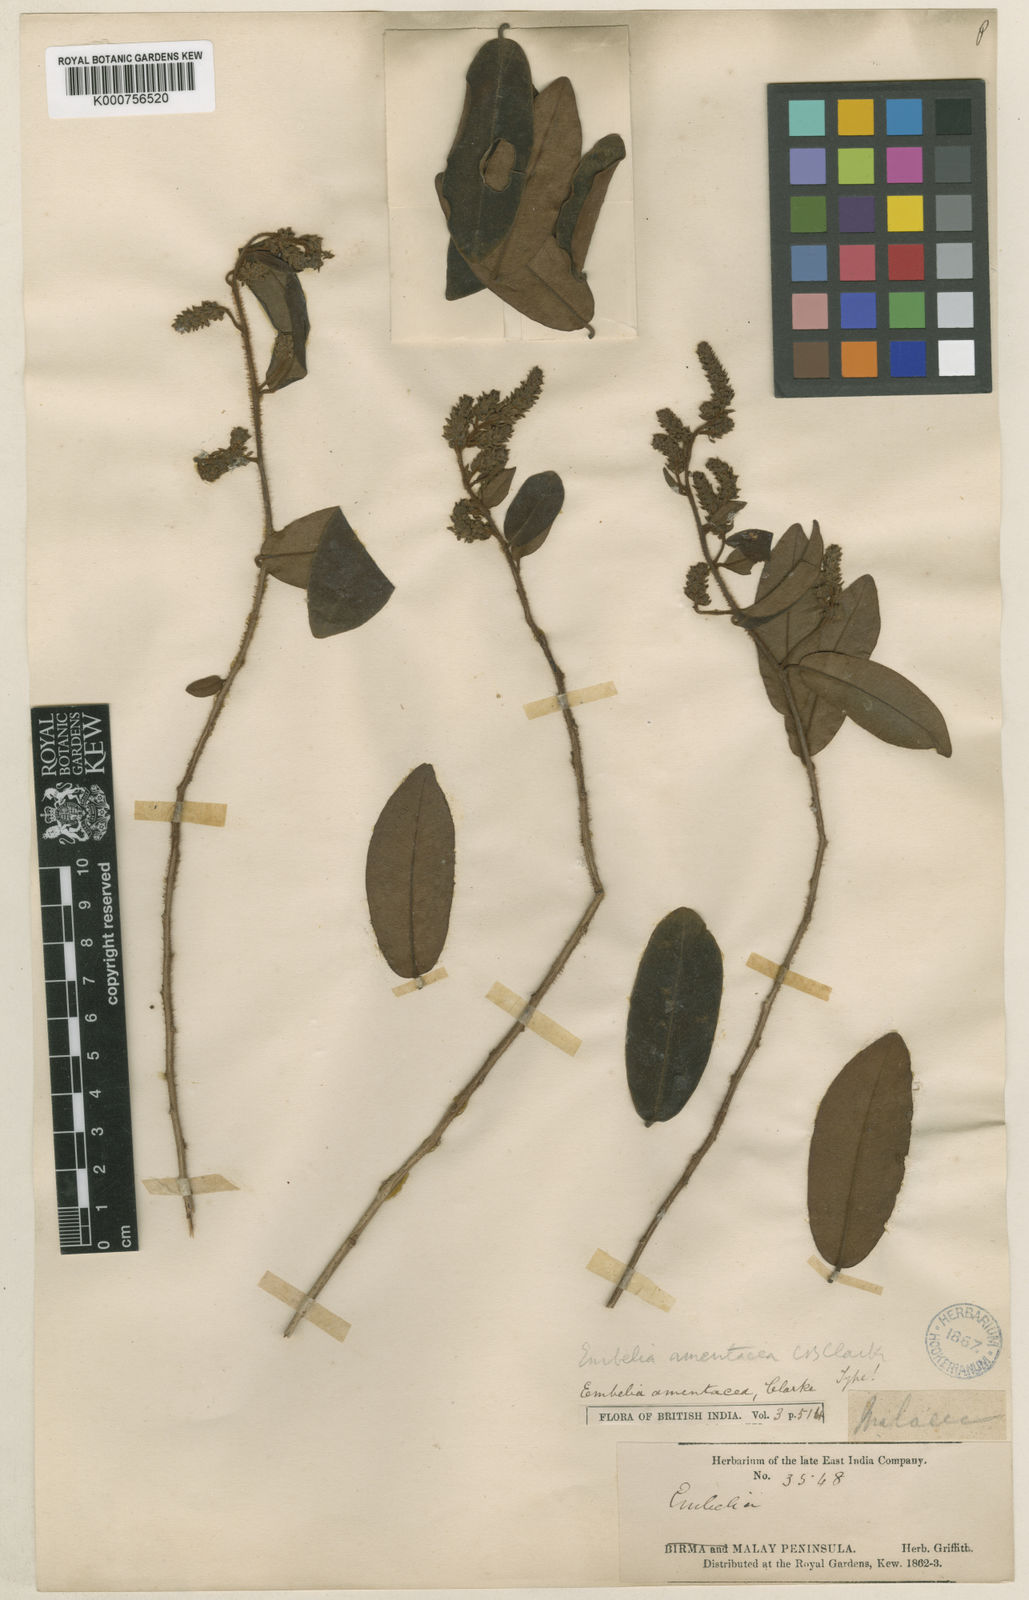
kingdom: Plantae
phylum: Tracheophyta
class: Magnoliopsida
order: Ericales
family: Primulaceae
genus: Grenacheria
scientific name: Grenacheria amentacea
